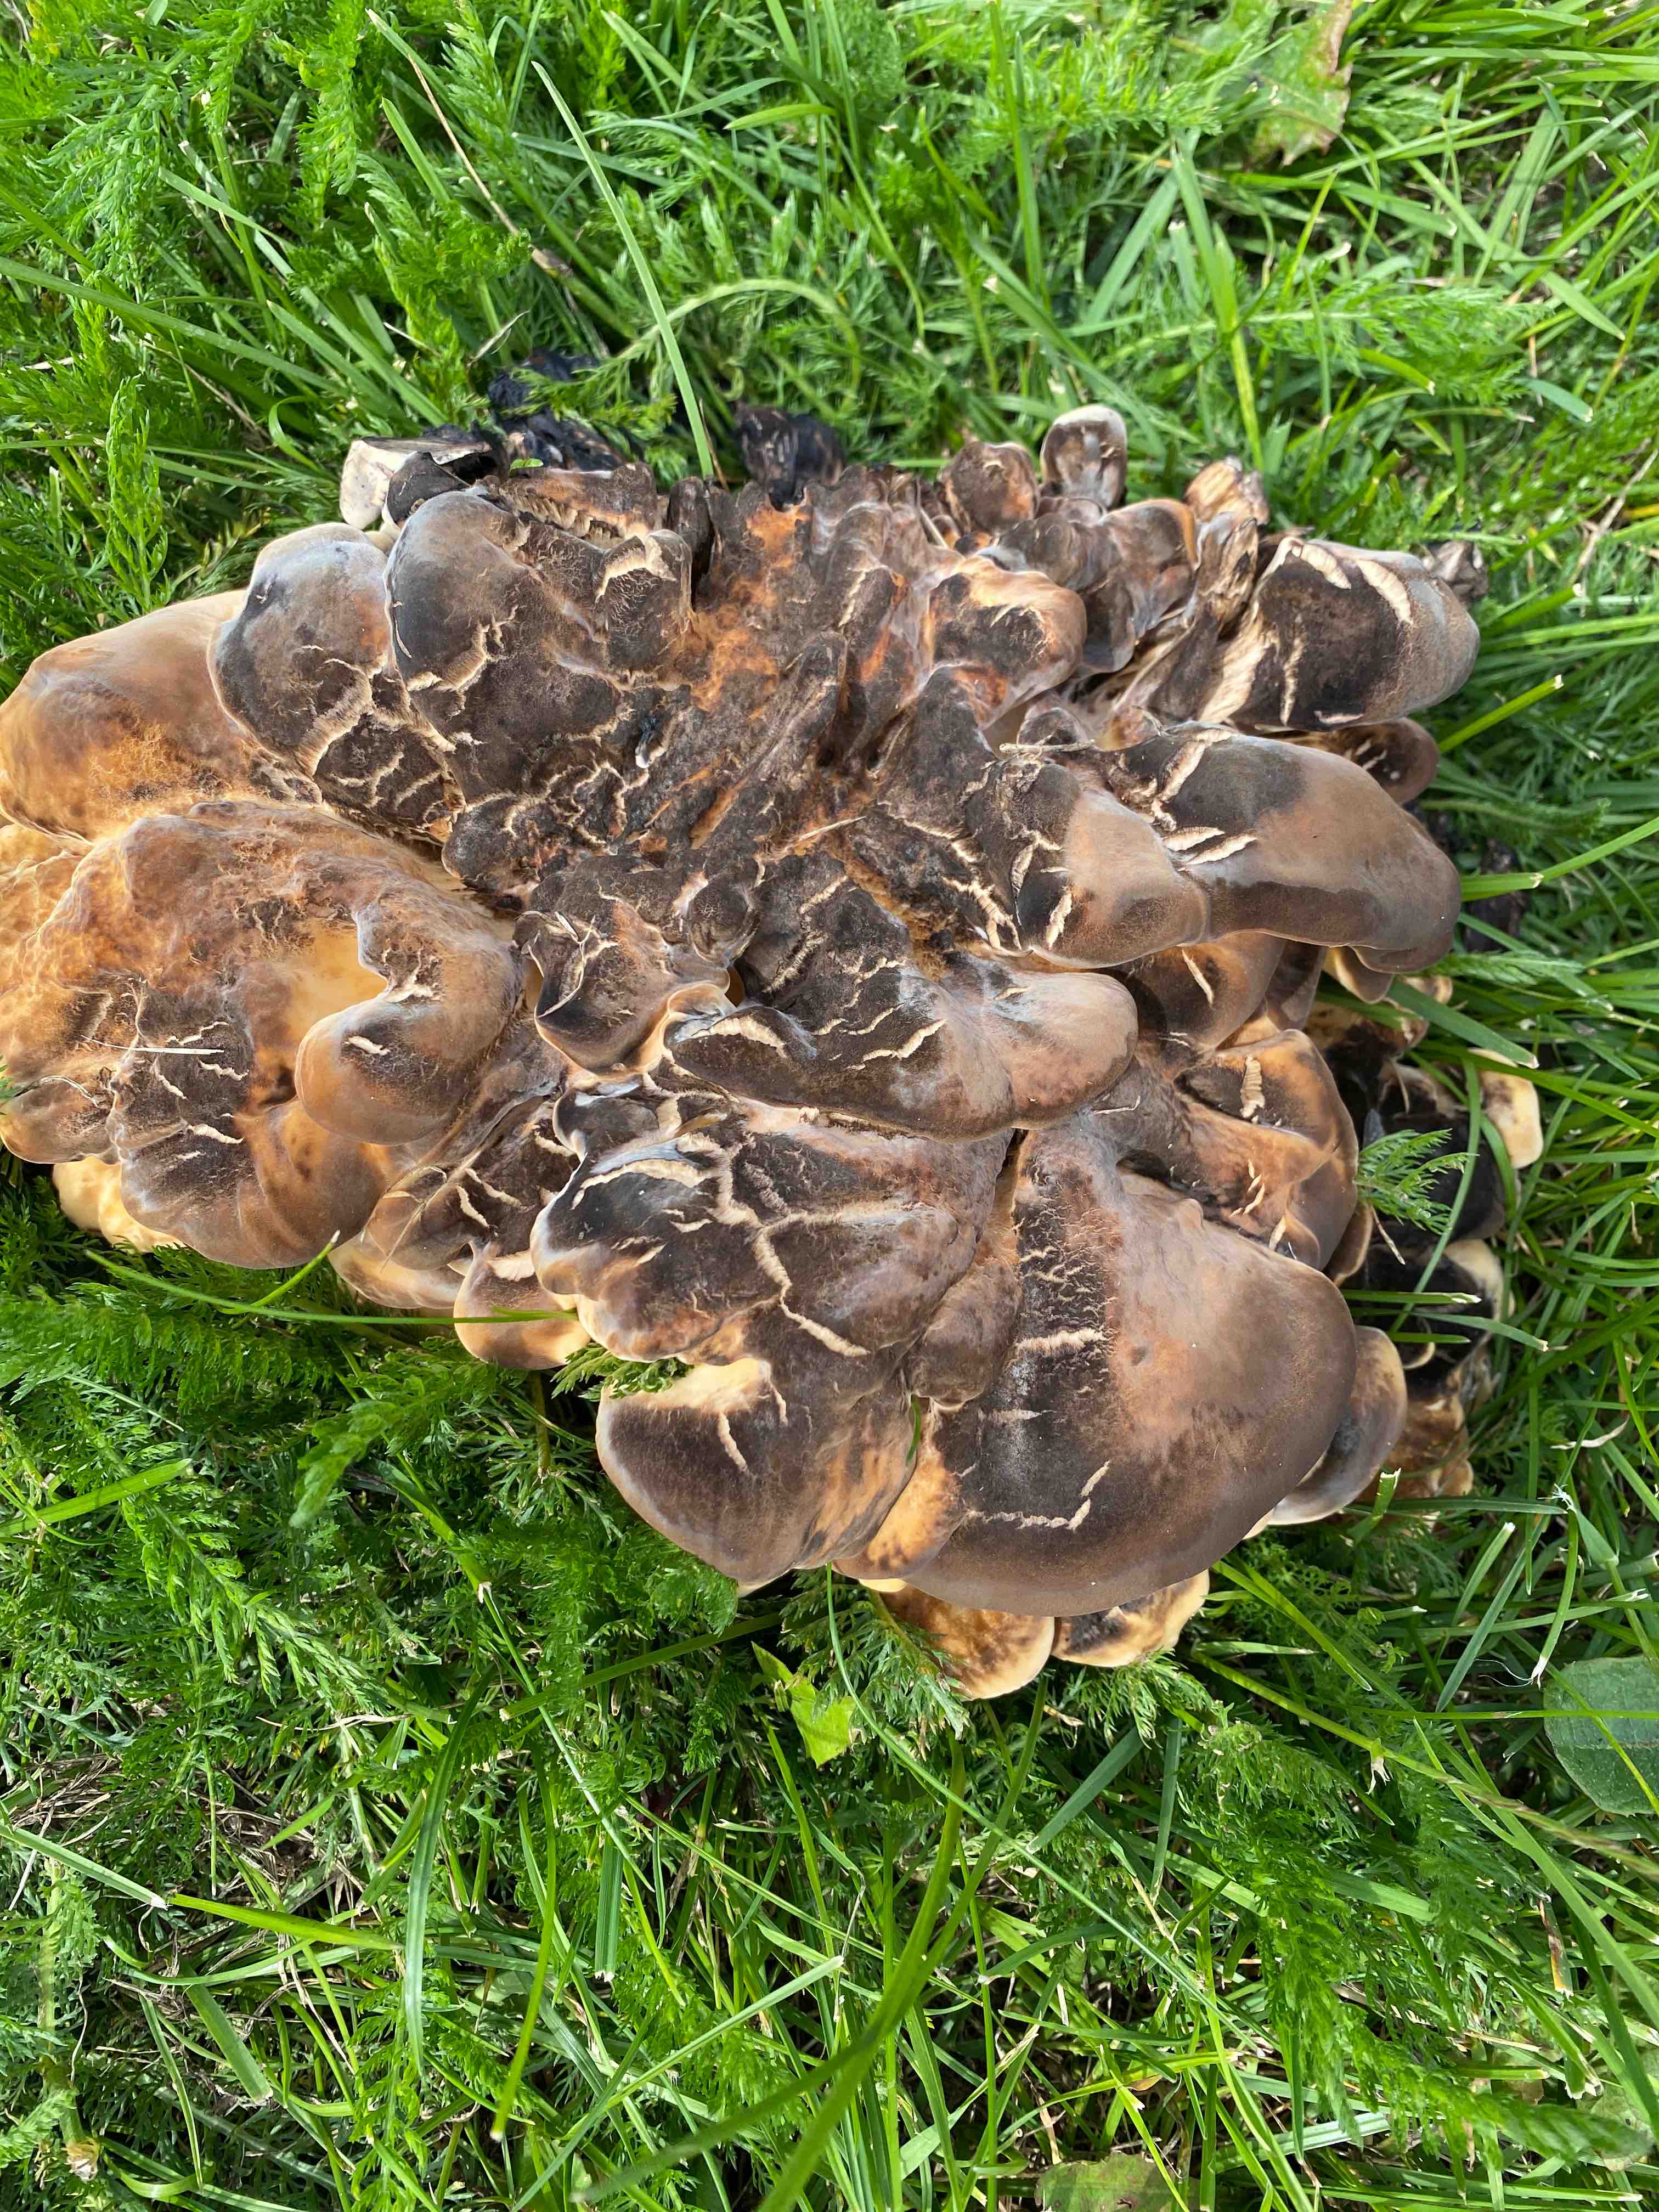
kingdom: Fungi
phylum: Basidiomycota
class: Agaricomycetes
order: Polyporales
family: Meripilaceae
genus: Meripilus
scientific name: Meripilus giganteus
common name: kæmpeporesvamp
